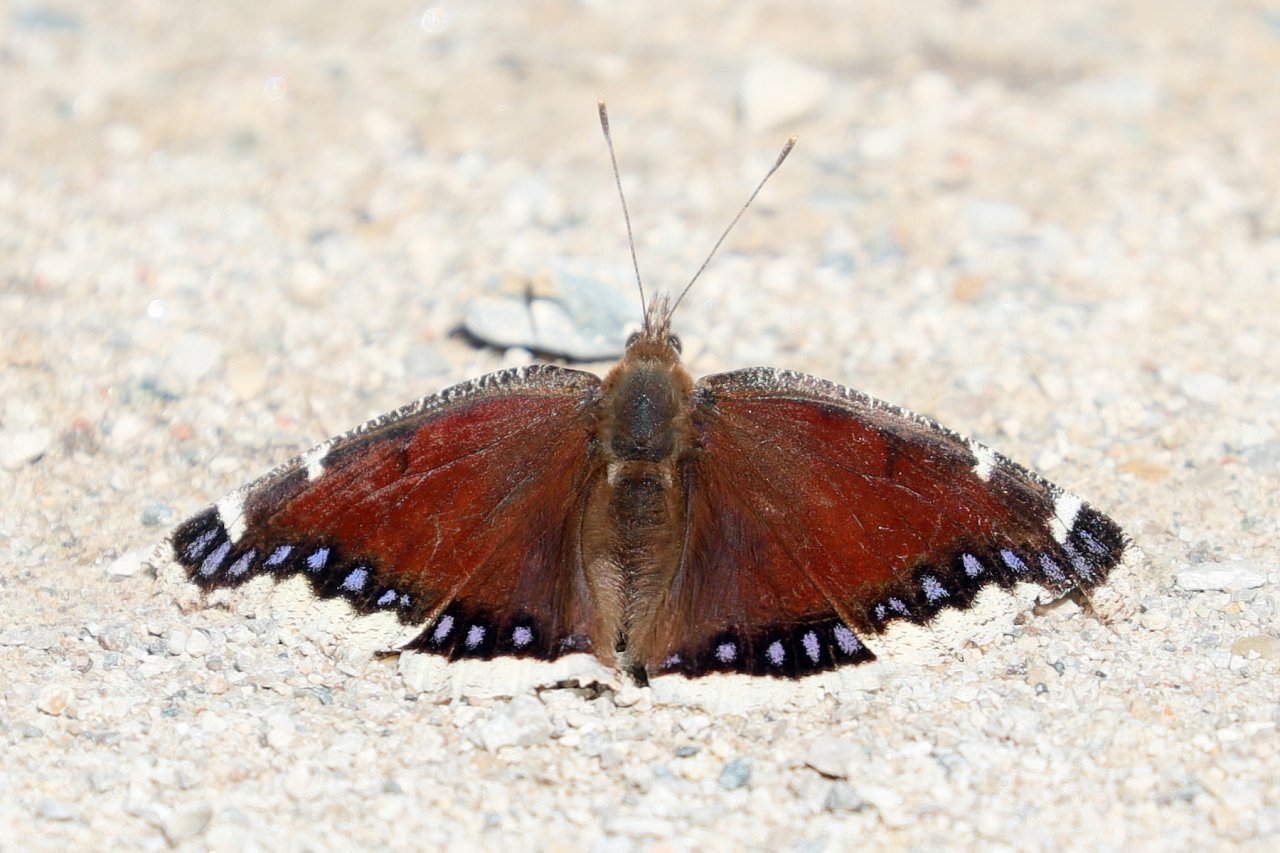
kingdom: Animalia
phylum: Arthropoda
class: Insecta
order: Lepidoptera
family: Nymphalidae
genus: Nymphalis
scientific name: Nymphalis antiopa
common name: Mourning Cloak
